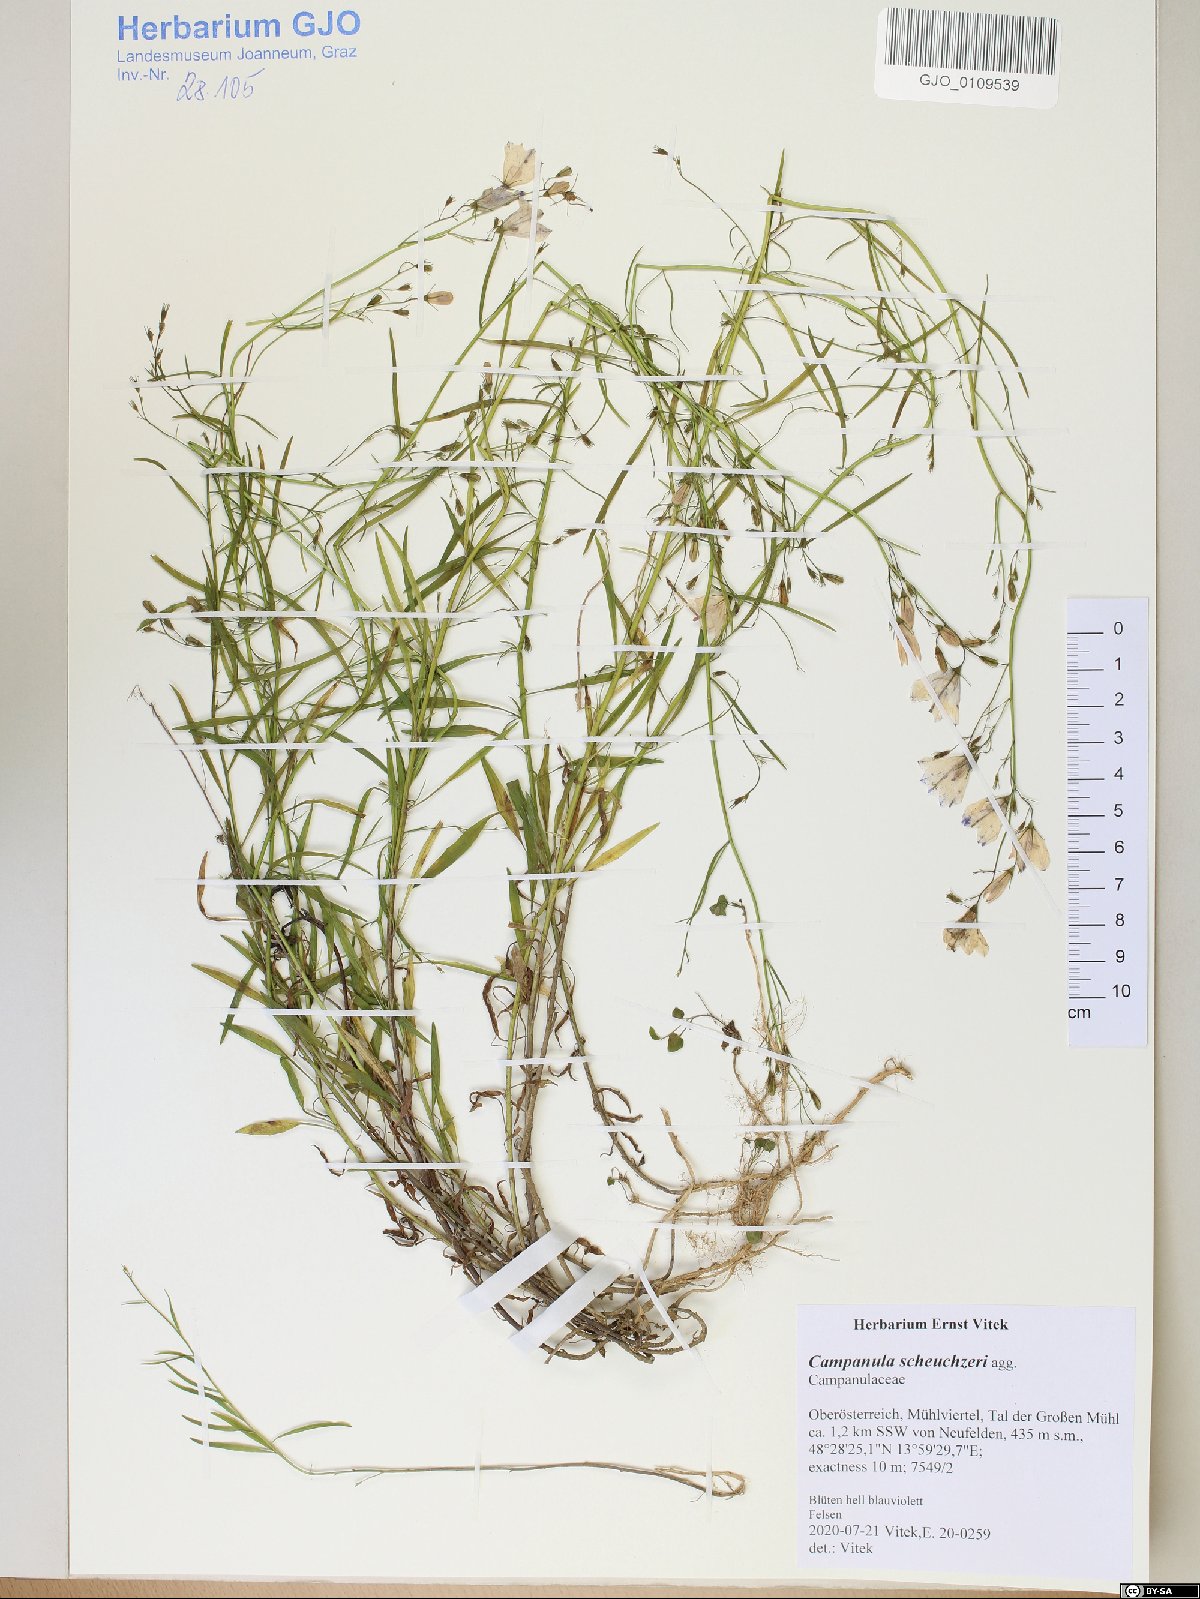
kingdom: Plantae
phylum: Tracheophyta
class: Magnoliopsida
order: Asterales
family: Campanulaceae
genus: Campanula
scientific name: Campanula scheuchzeri
